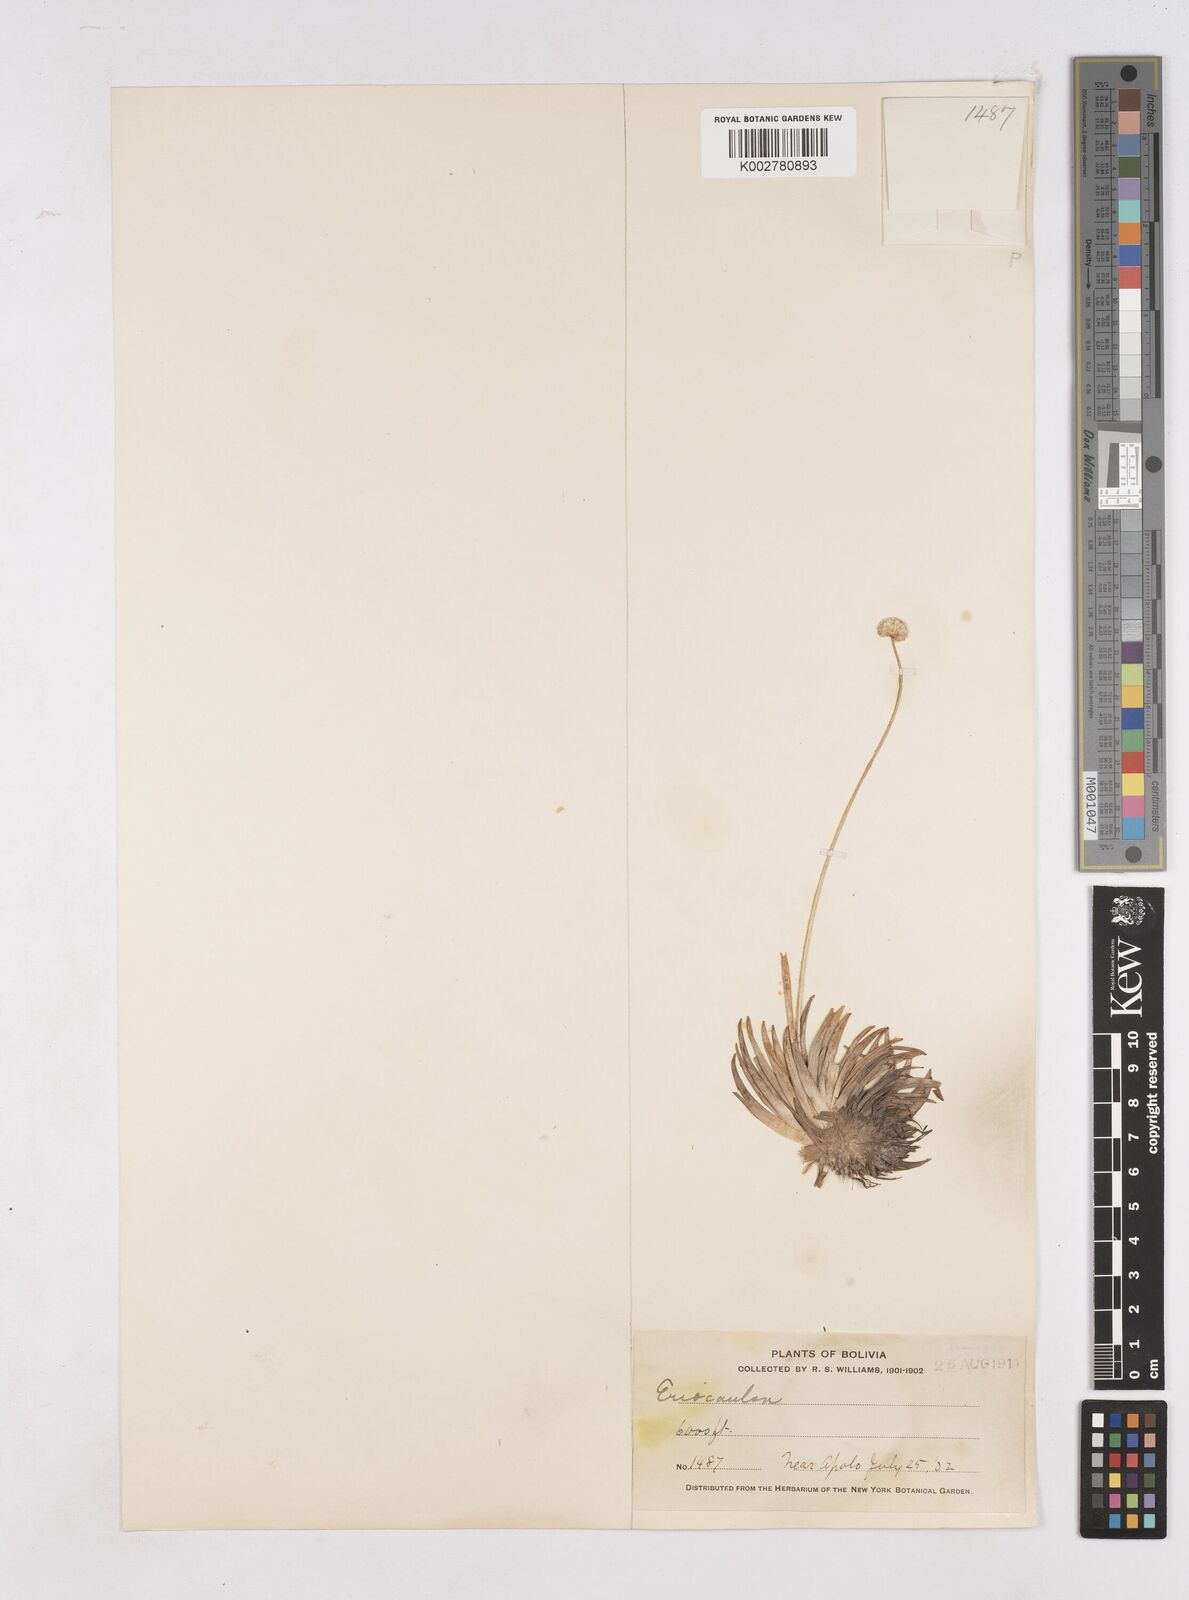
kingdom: Plantae
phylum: Tracheophyta
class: Liliopsida
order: Poales
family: Eriocaulaceae
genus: Paepalanthus
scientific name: Paepalanthus
